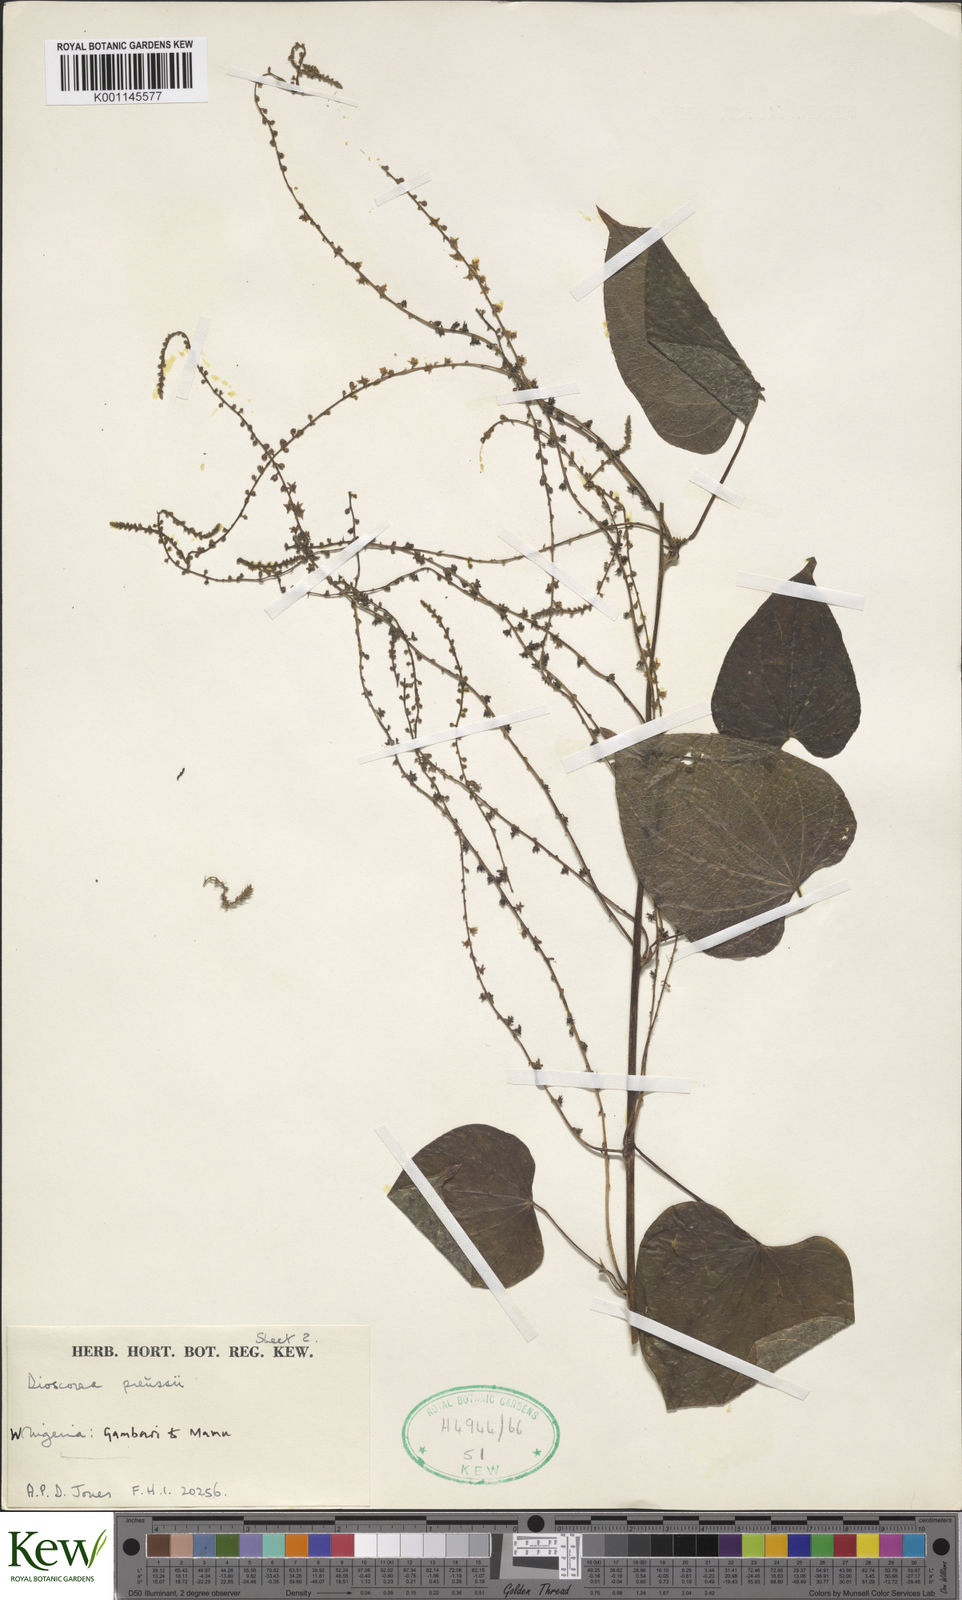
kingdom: Plantae
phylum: Tracheophyta
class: Liliopsida
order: Dioscoreales
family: Dioscoreaceae
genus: Dioscorea
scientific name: Dioscorea preussii
